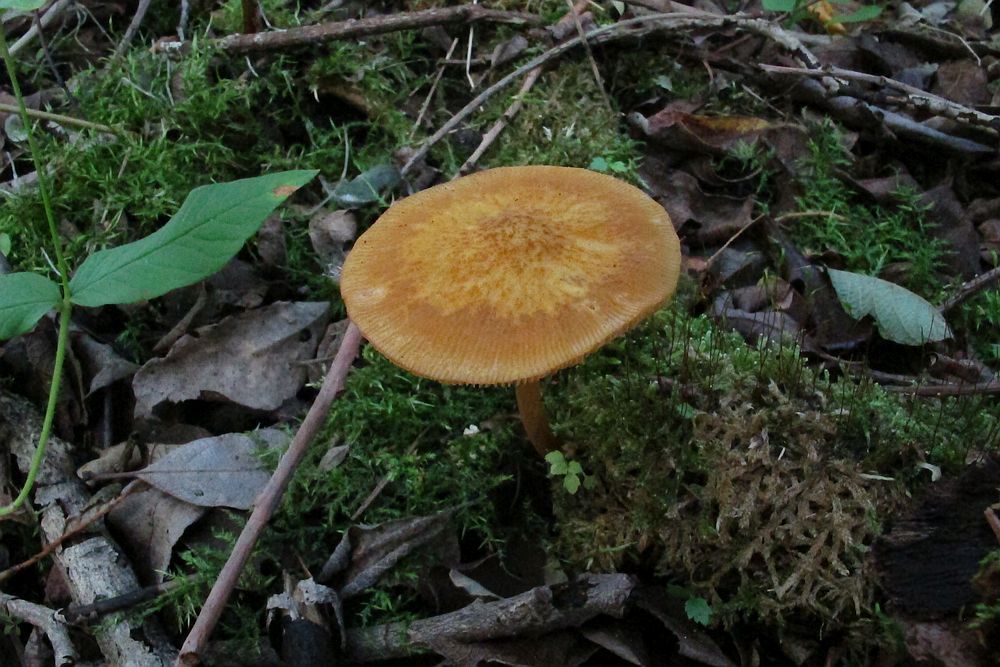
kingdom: Fungi
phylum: Basidiomycota
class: Agaricomycetes
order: Agaricales
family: Pluteaceae
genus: Pluteus
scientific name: Pluteus leoninus
